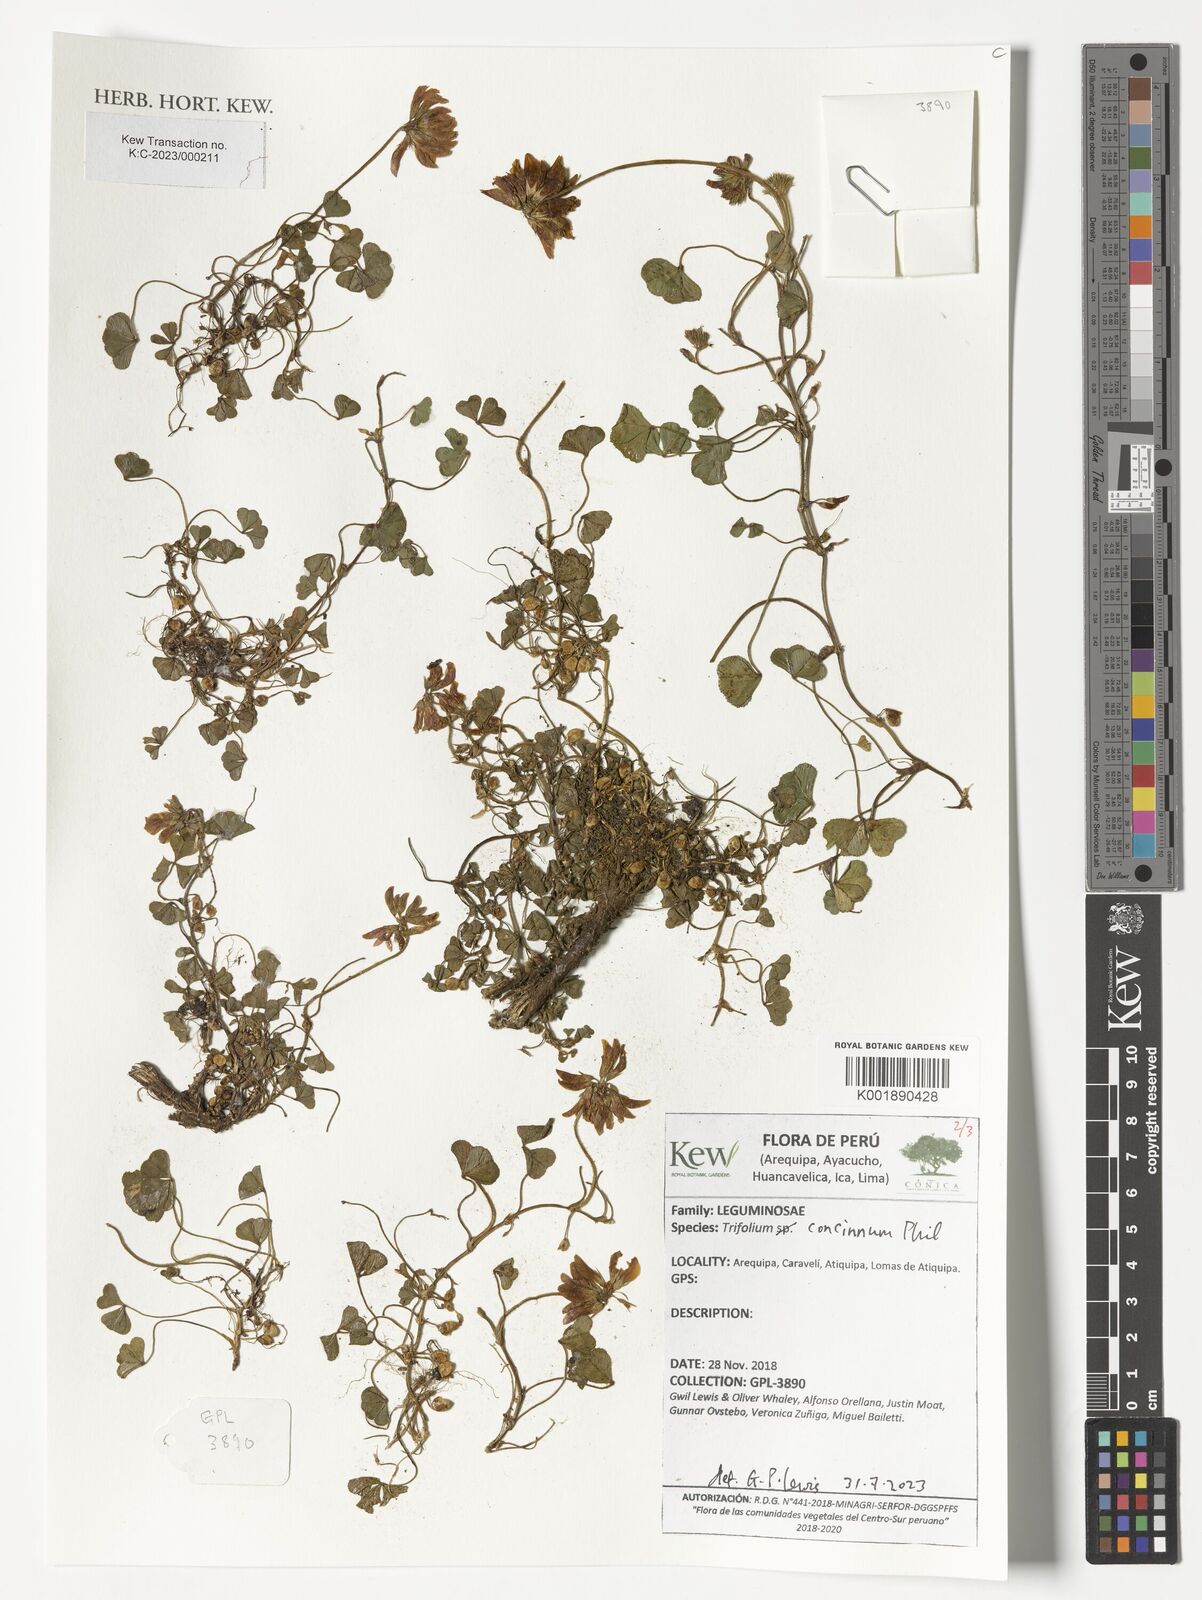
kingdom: Plantae
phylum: Tracheophyta
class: Magnoliopsida
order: Fabales
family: Fabaceae
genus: Trifolium
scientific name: Trifolium polymorphum
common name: Peanut clover
